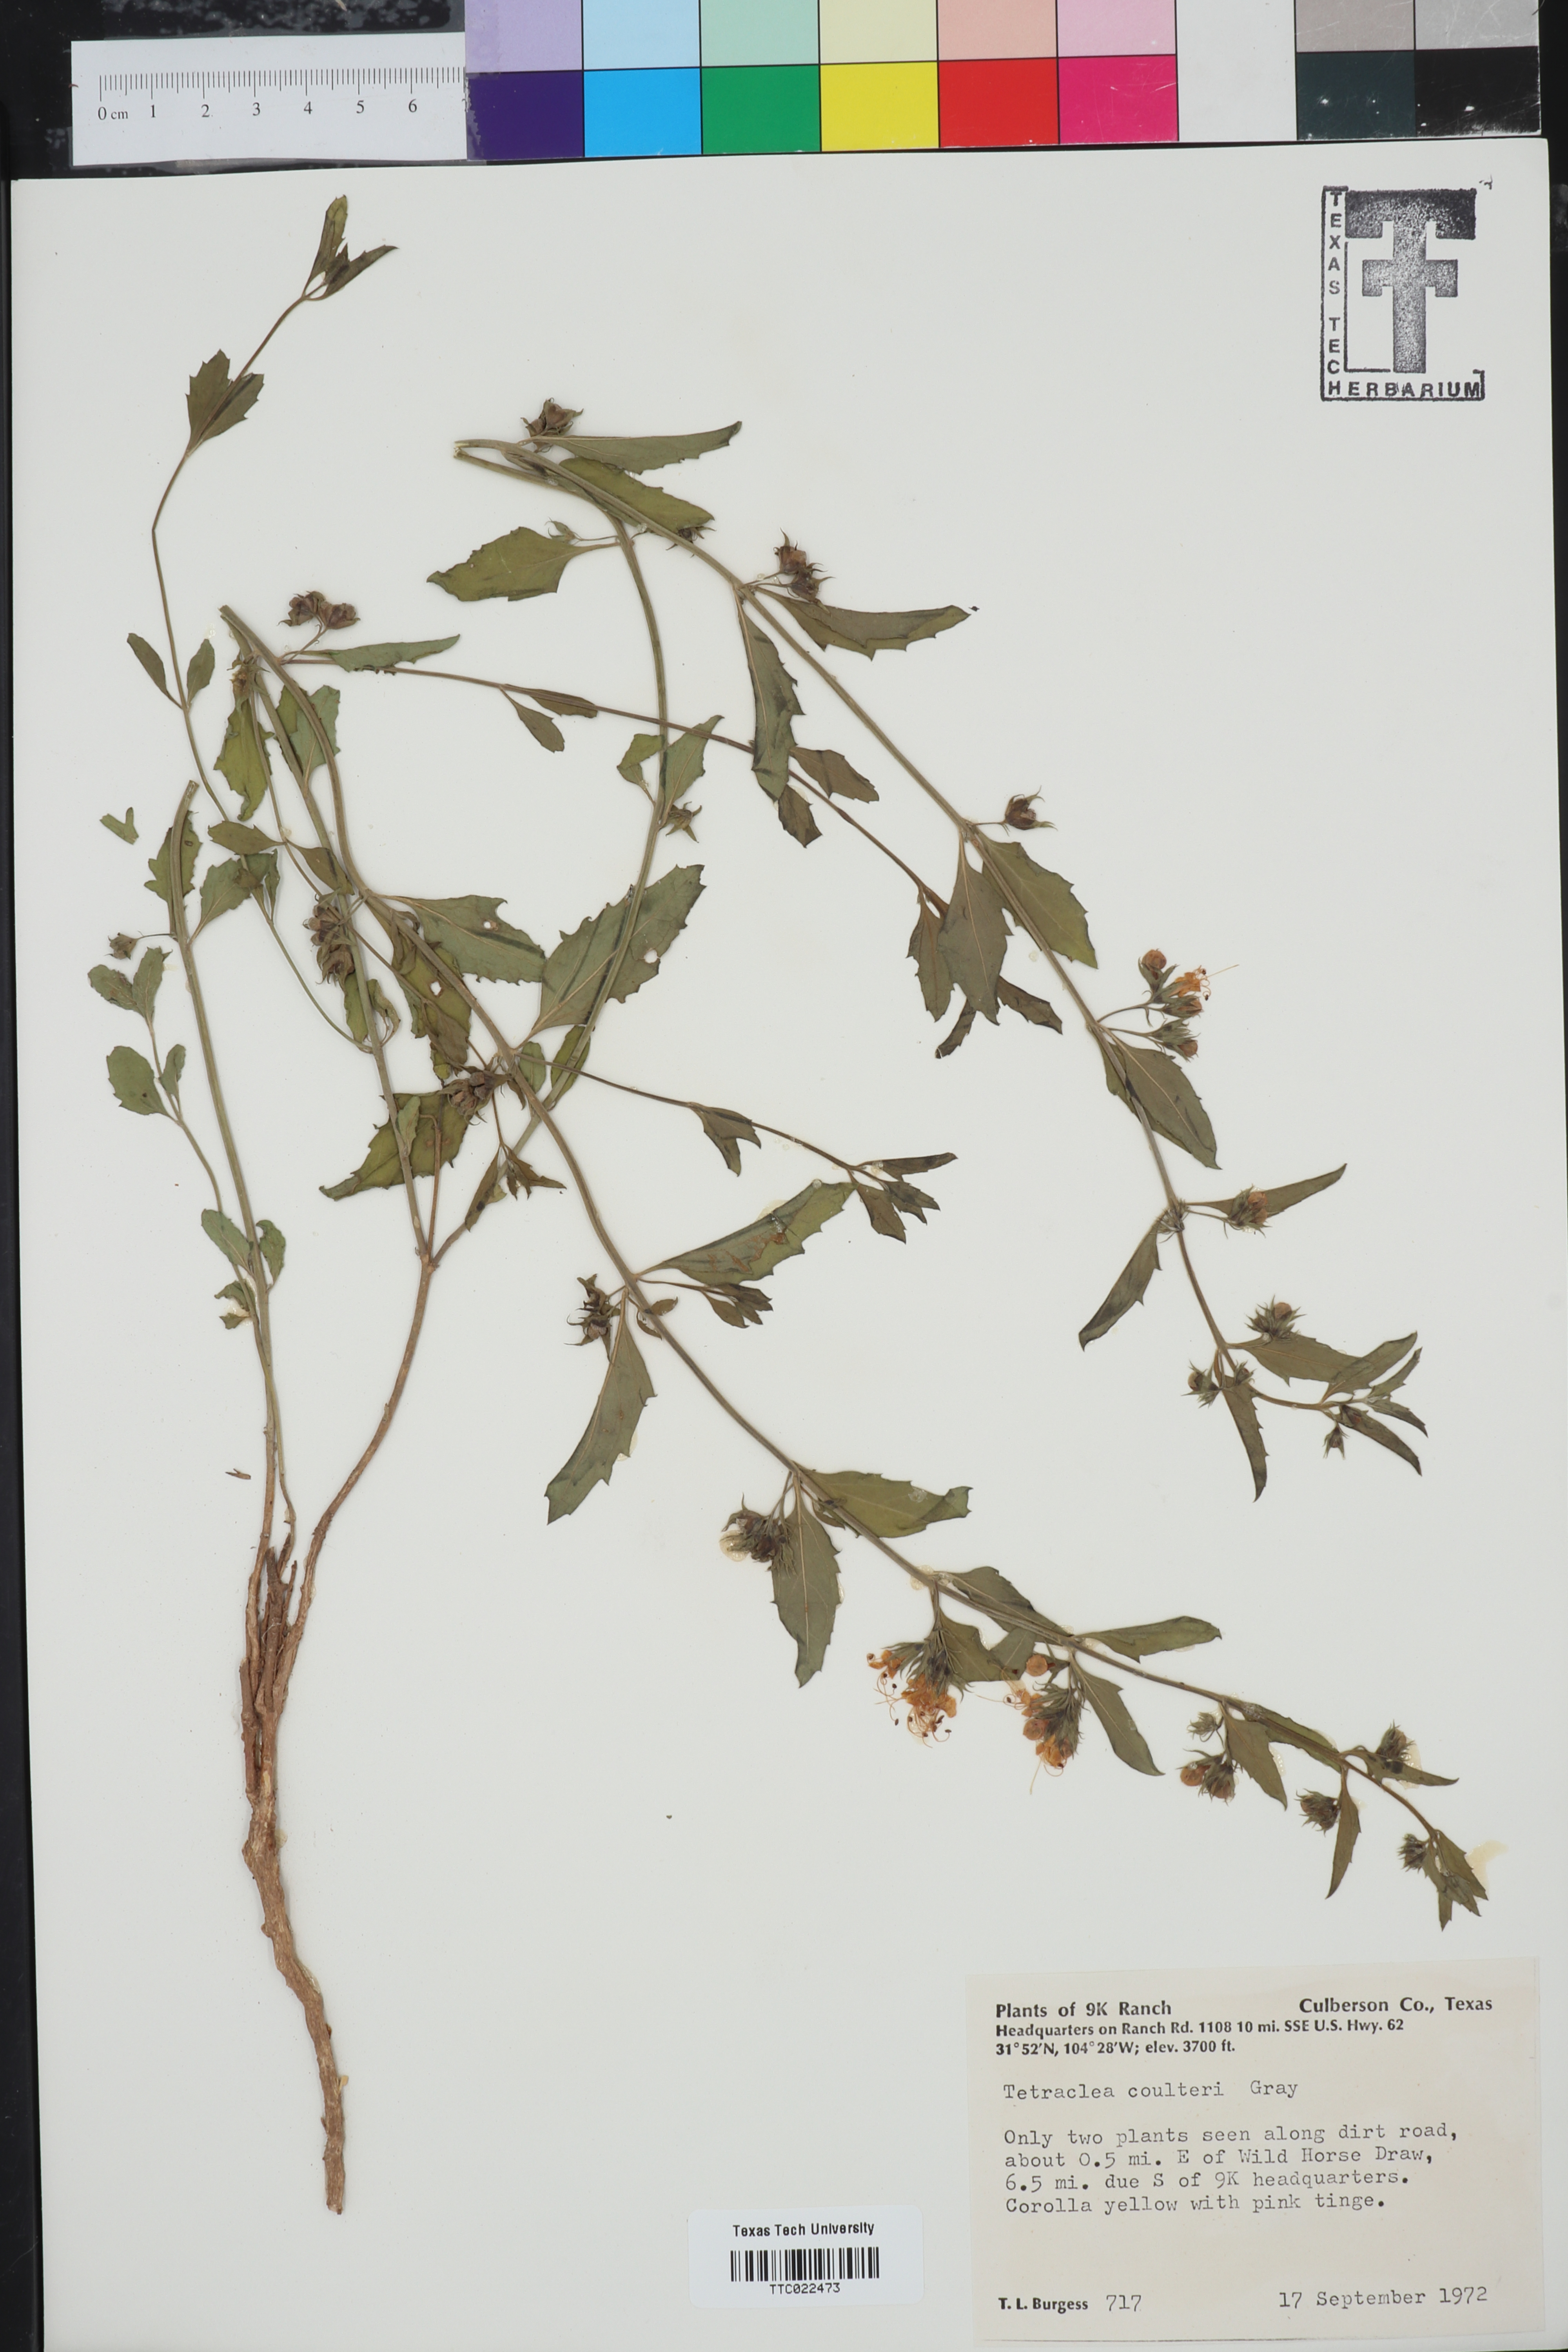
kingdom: Plantae
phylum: Tracheophyta
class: Magnoliopsida
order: Lamiales
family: Lamiaceae
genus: Tetraclea
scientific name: Tetraclea coulteri
